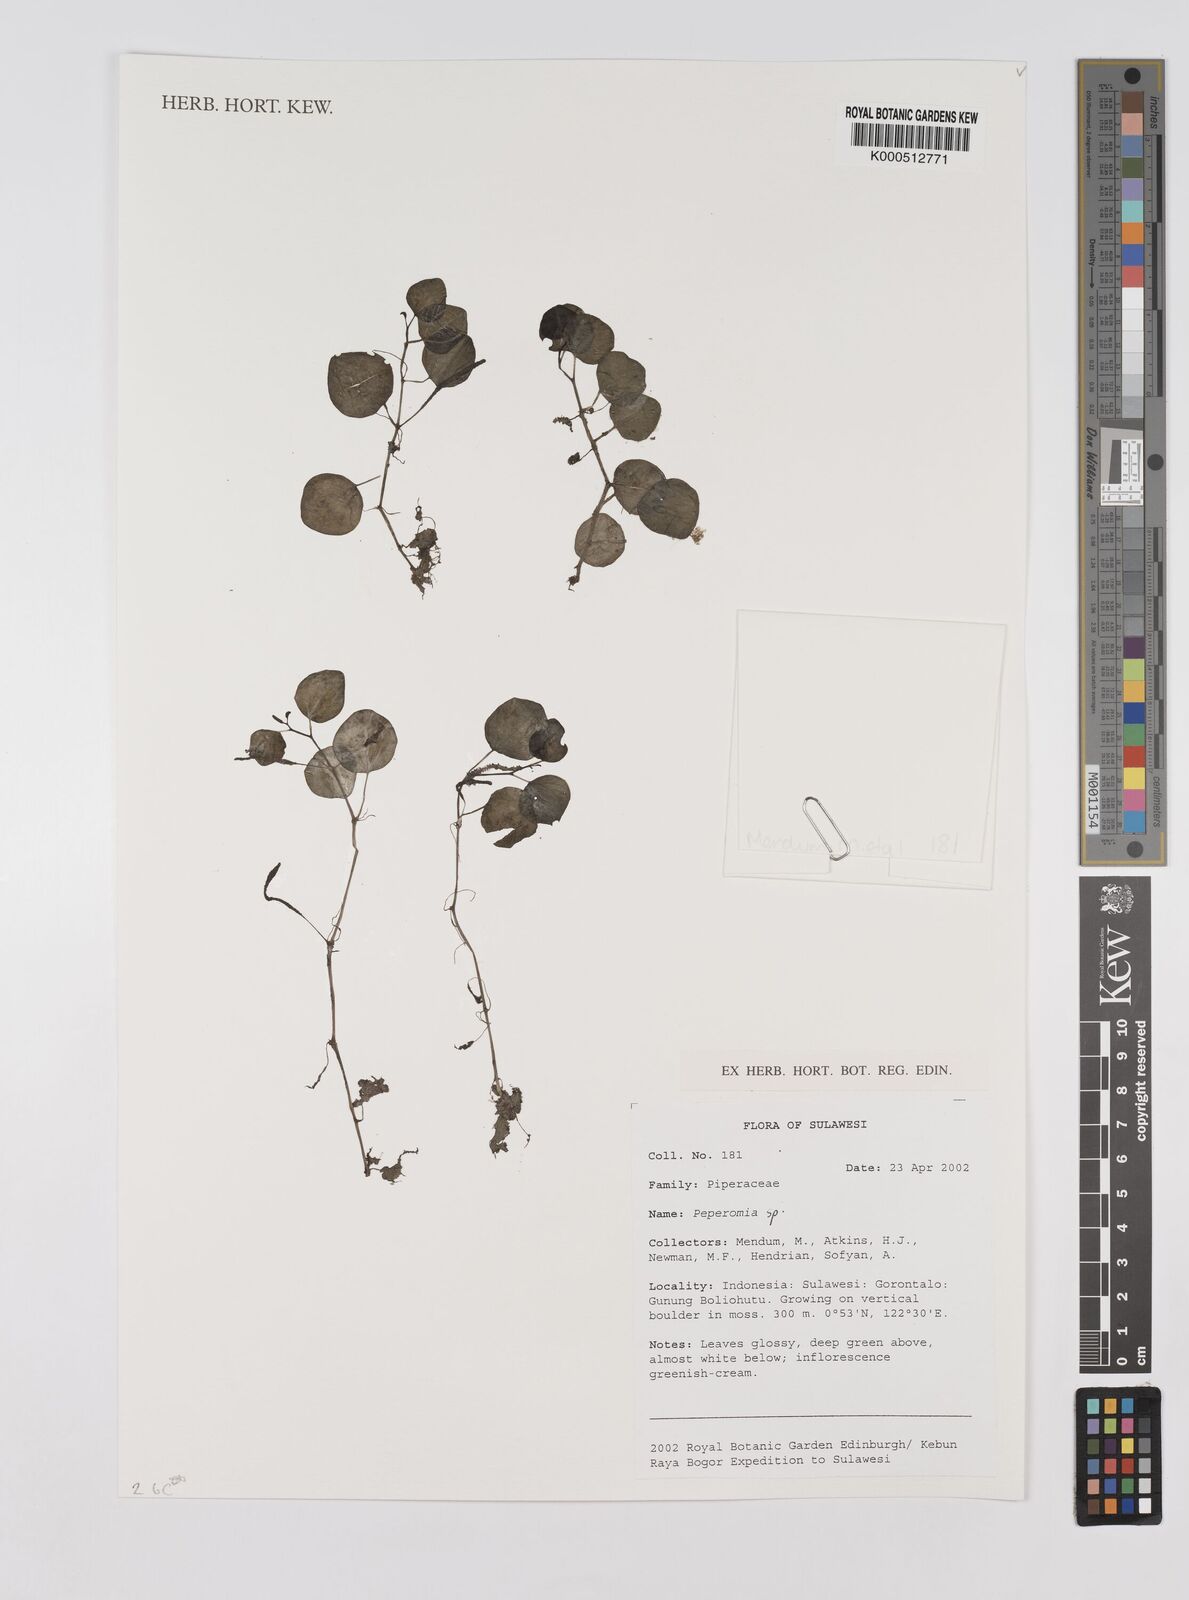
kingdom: Plantae
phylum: Tracheophyta
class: Magnoliopsida
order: Piperales
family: Piperaceae
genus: Peperomia
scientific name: Peperomia
